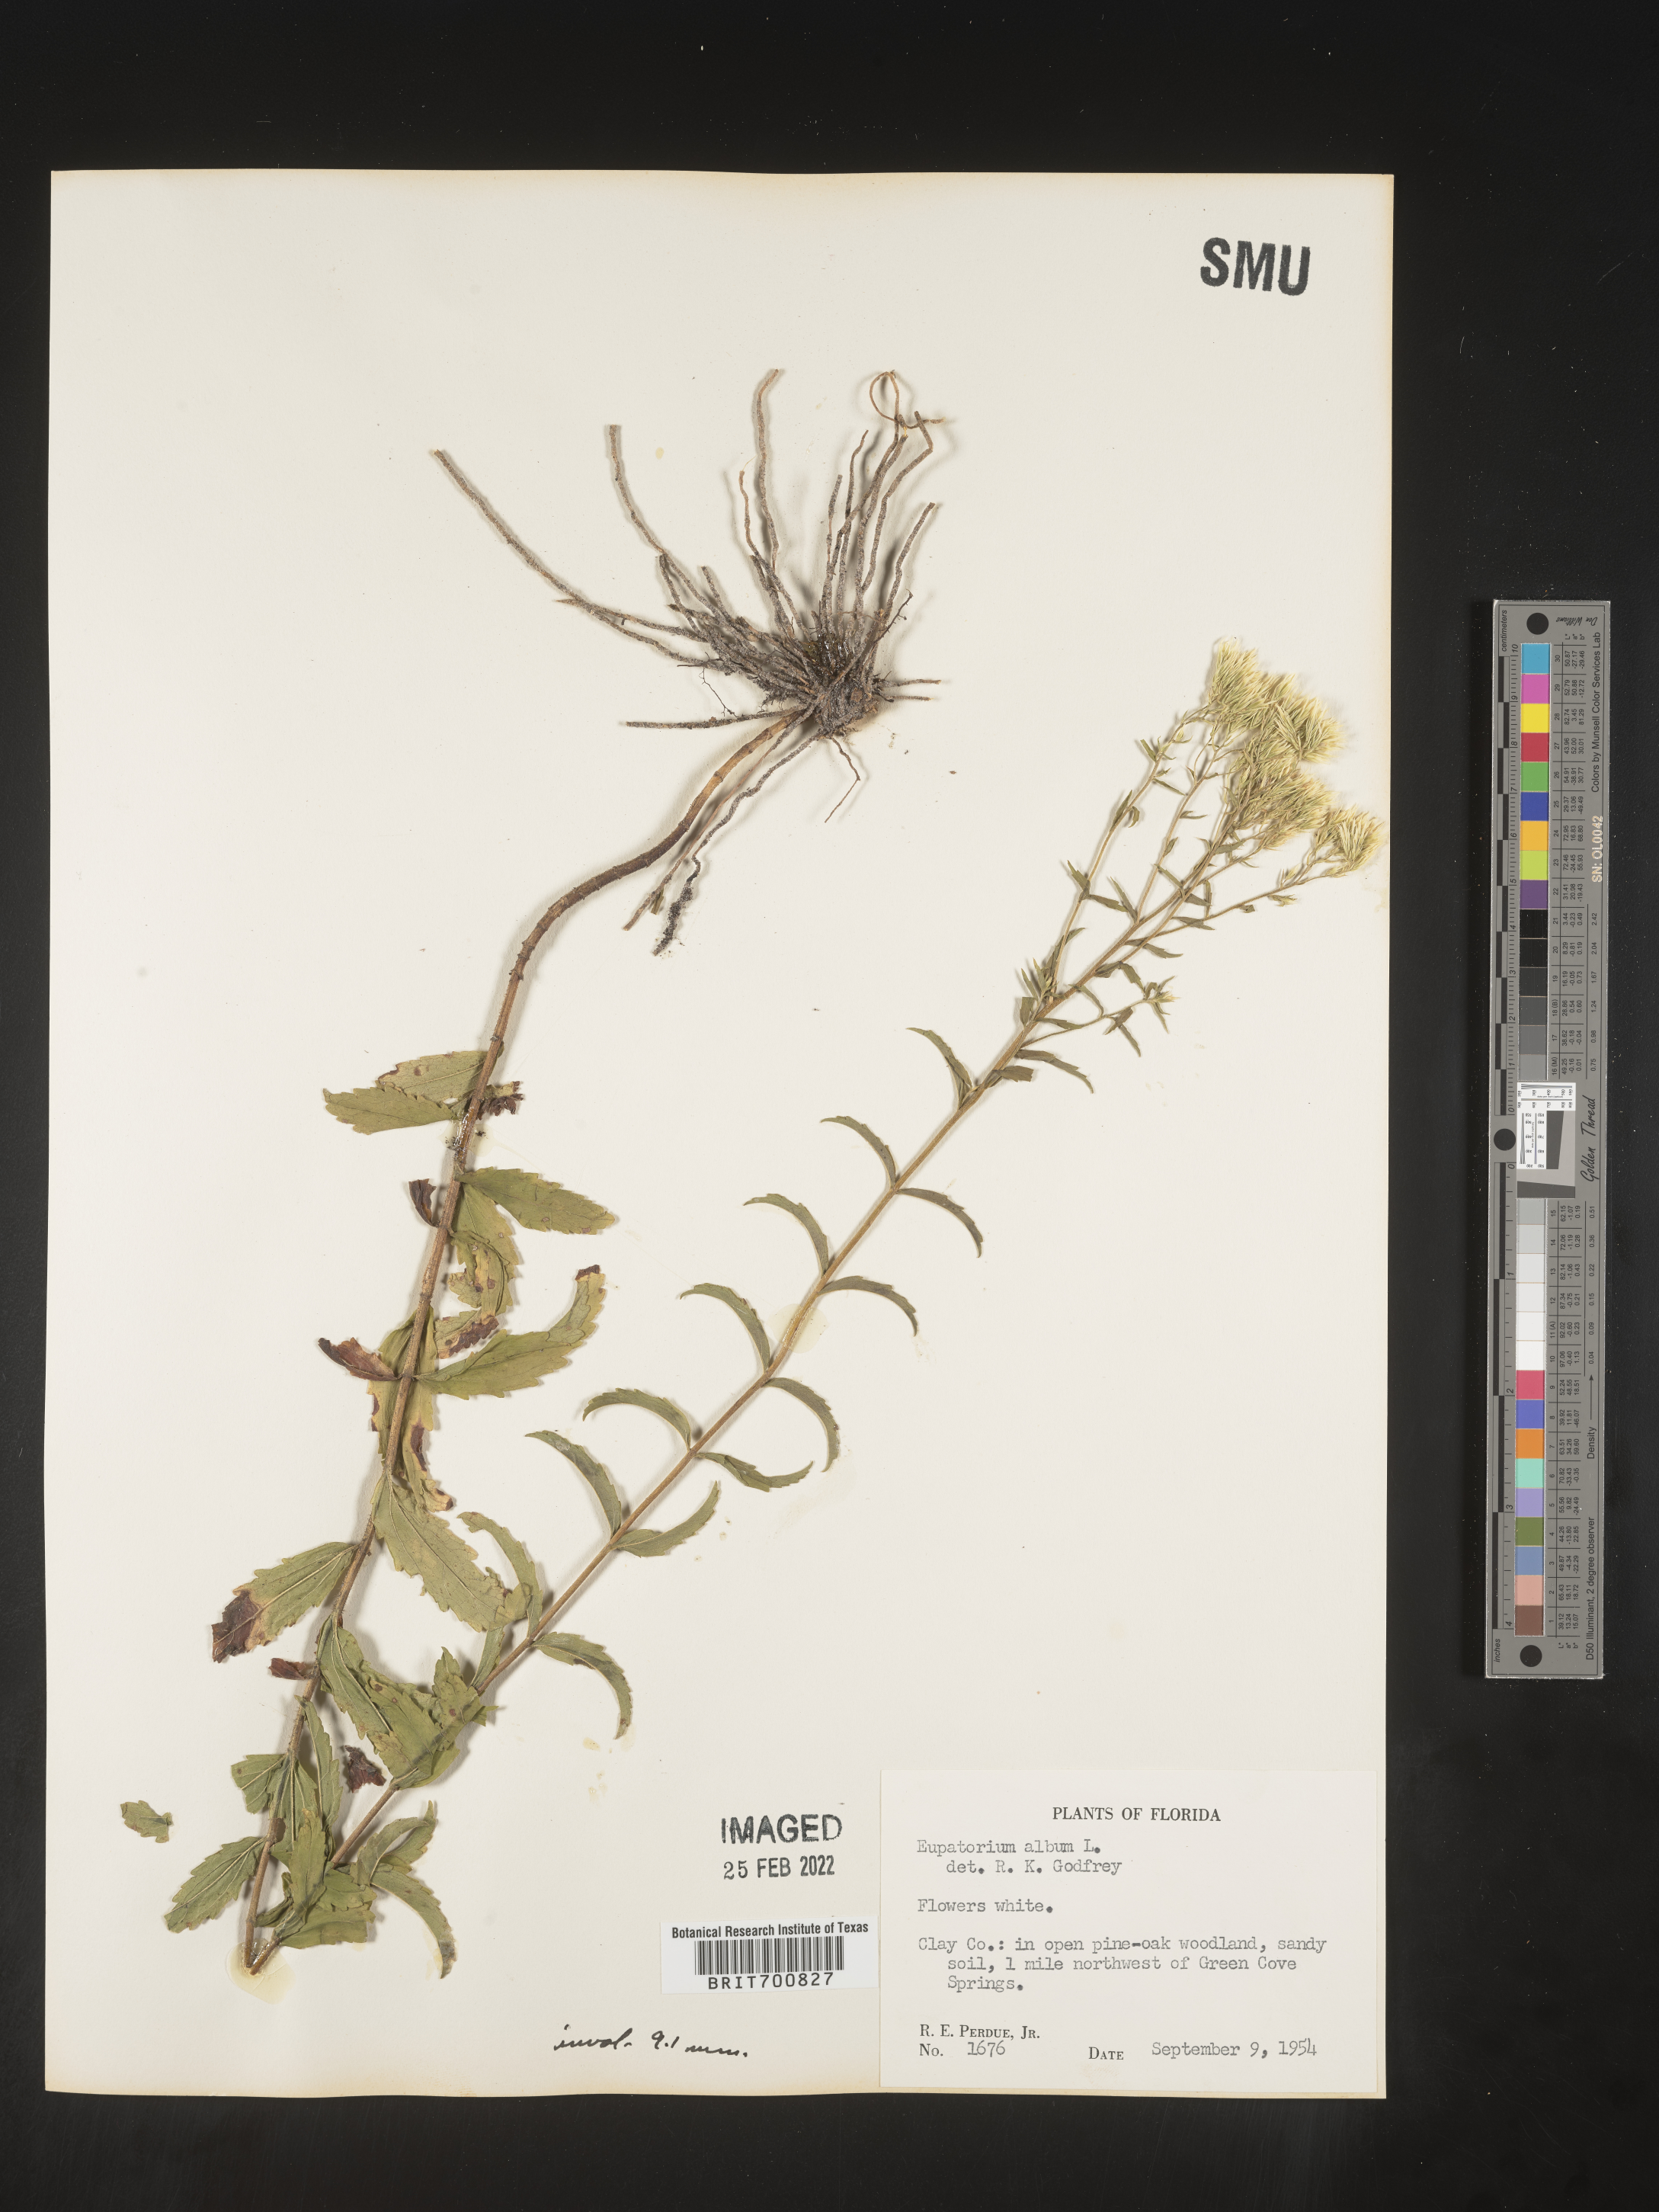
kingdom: Plantae
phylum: Tracheophyta
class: Magnoliopsida
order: Asterales
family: Asteraceae
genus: Eupatorium
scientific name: Eupatorium album
